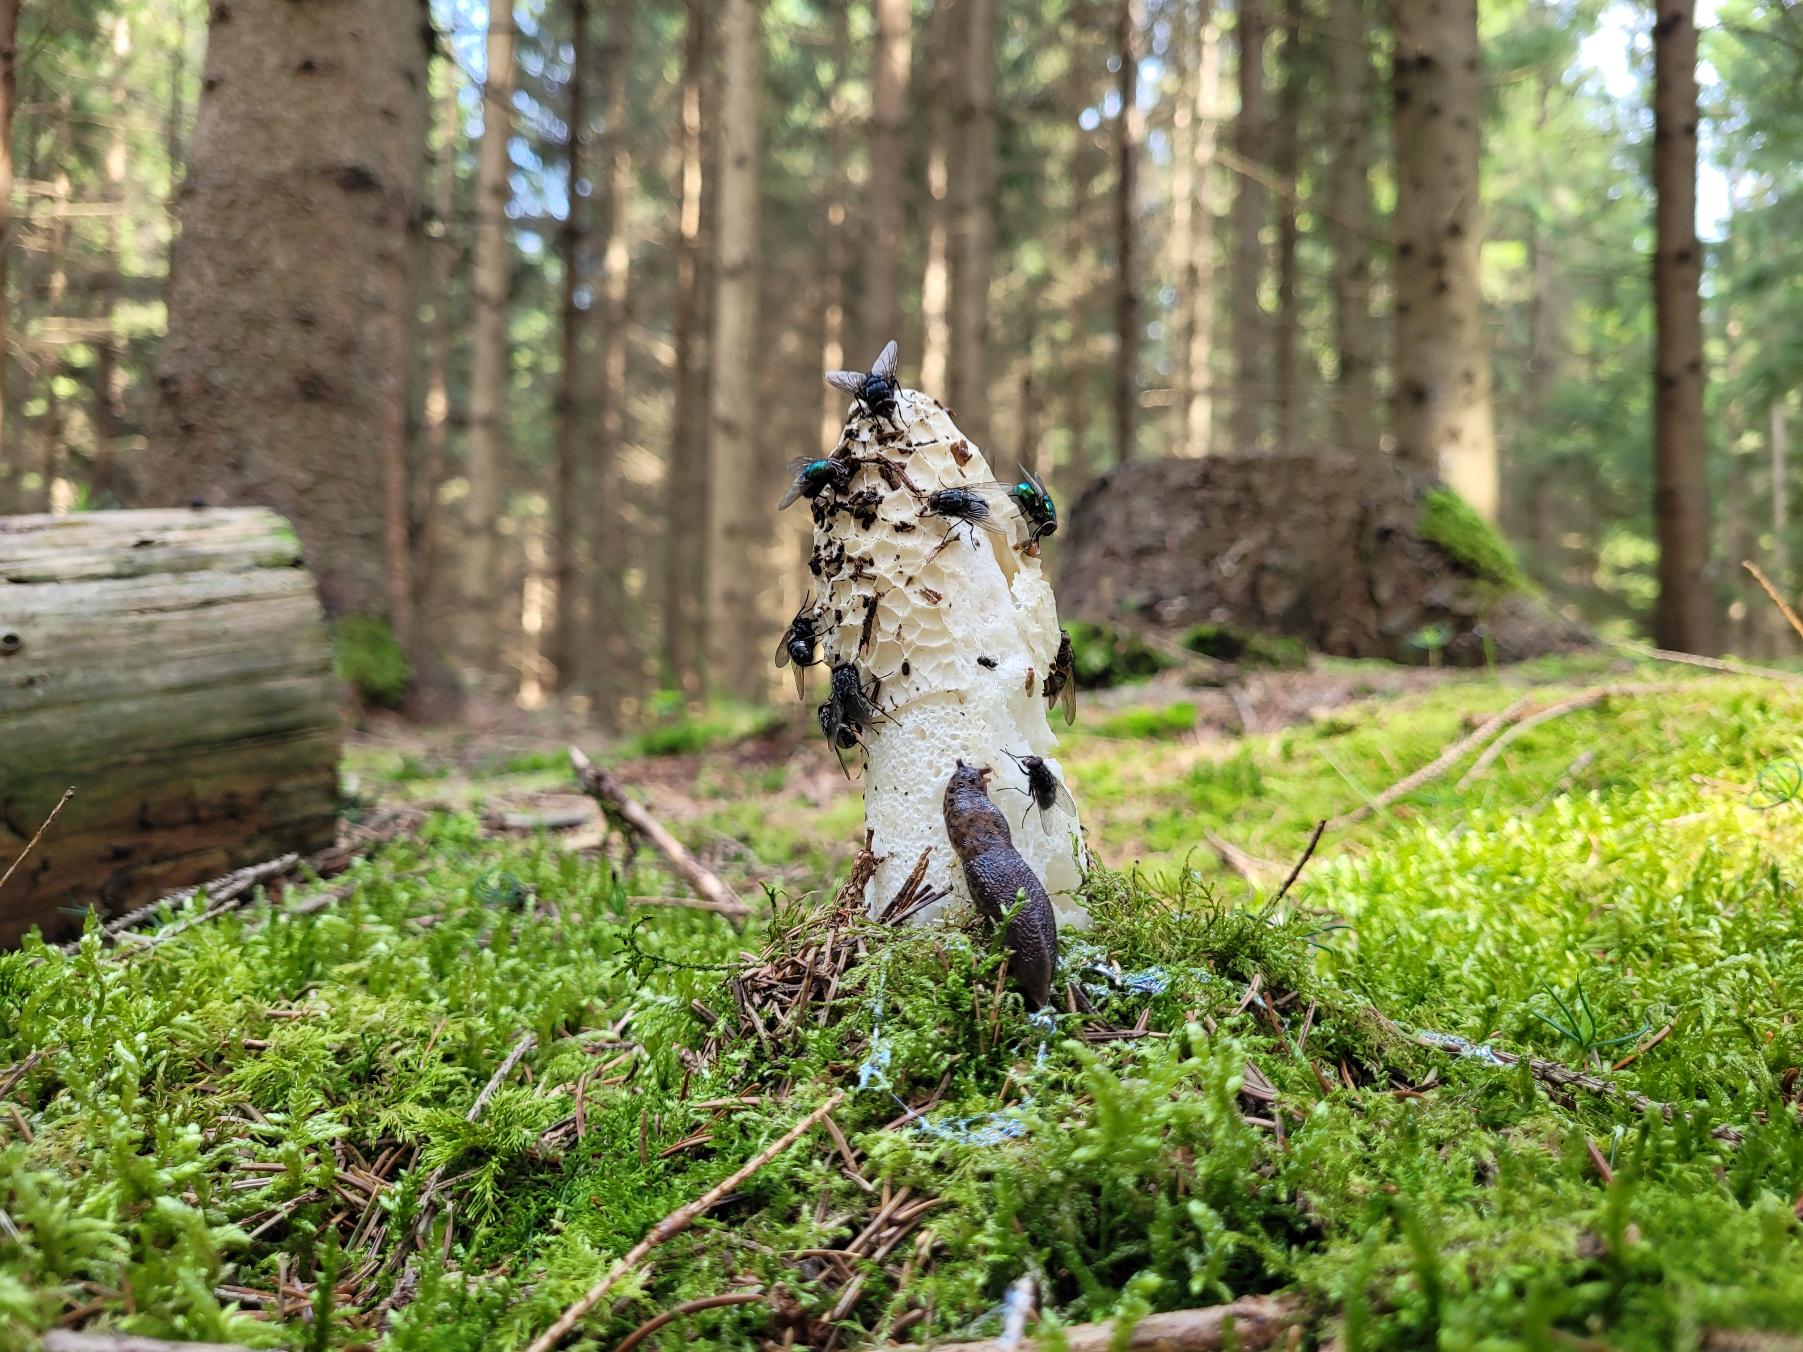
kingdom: Fungi
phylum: Basidiomycota
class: Agaricomycetes
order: Phallales
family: Phallaceae
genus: Phallus
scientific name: Phallus impudicus
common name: Almindelig stinksvamp
